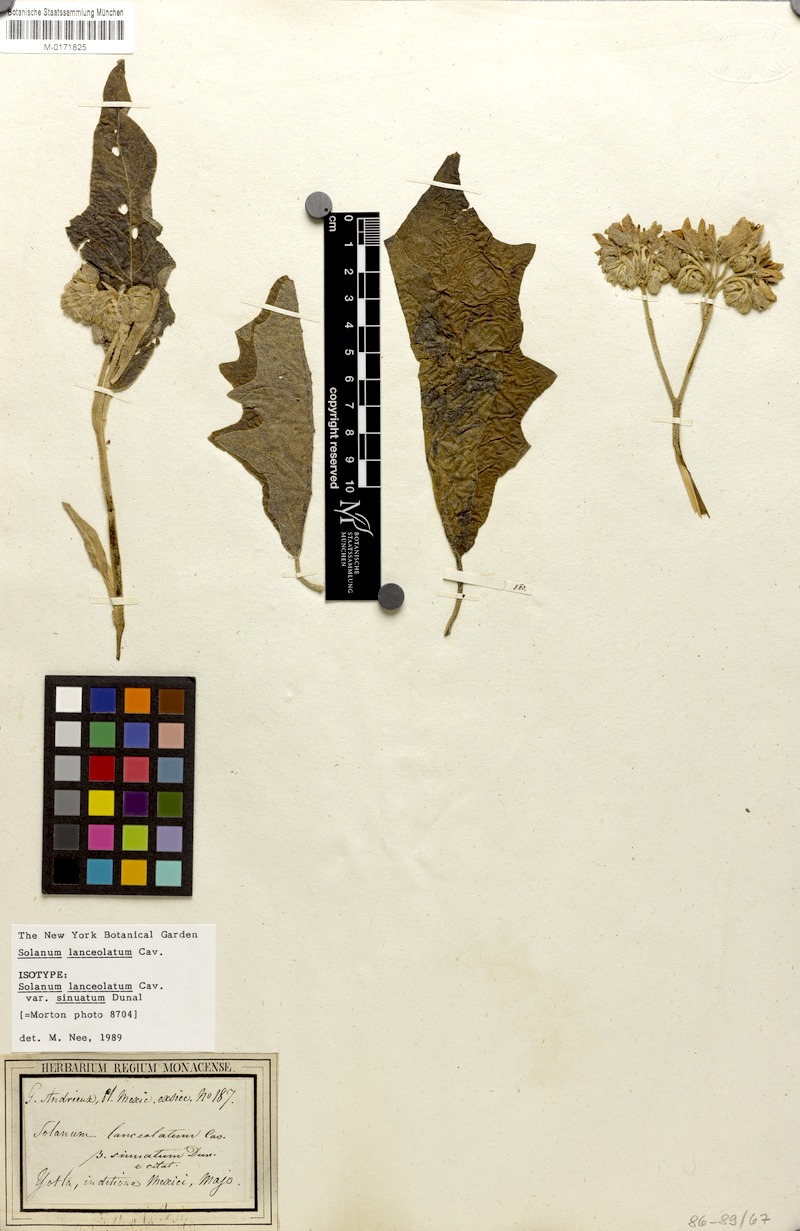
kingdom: Plantae
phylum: Tracheophyta
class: Magnoliopsida
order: Solanales
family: Solanaceae
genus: Solanum
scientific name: Solanum lanceolatum
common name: Orangeberry nightshade
